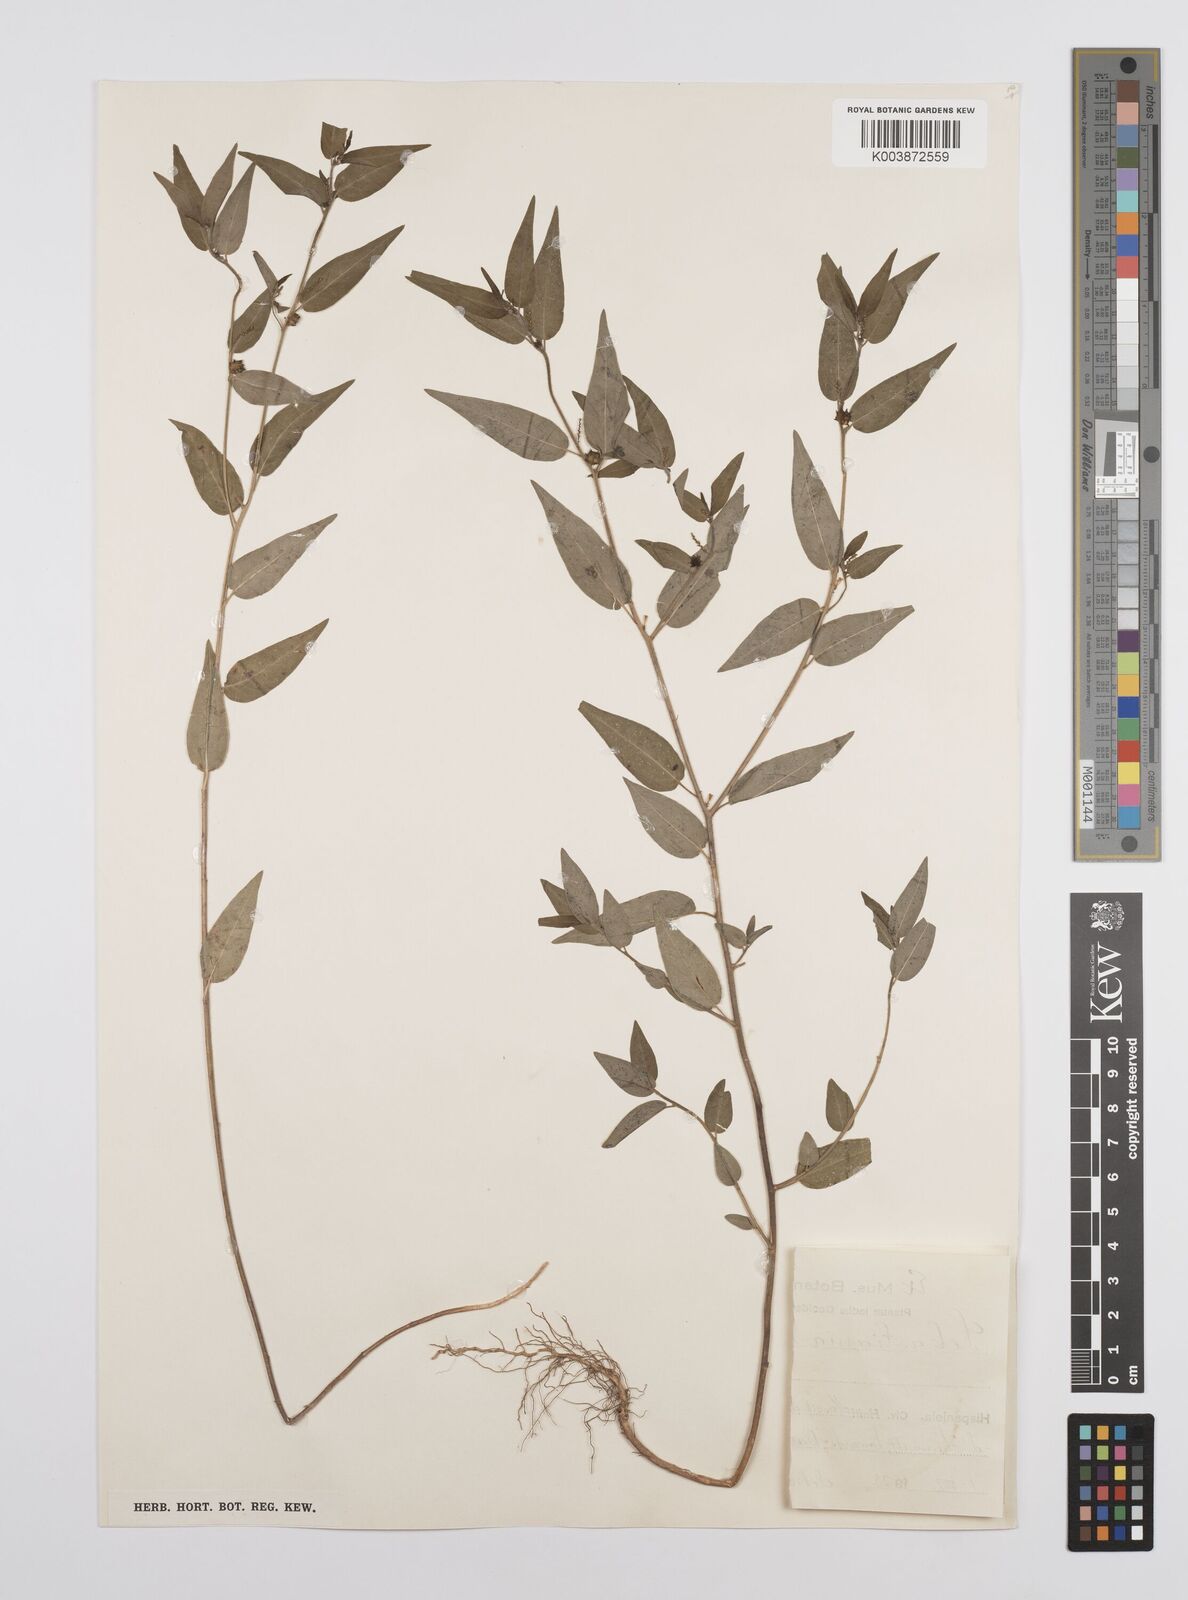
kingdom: Plantae
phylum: Tracheophyta
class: Magnoliopsida
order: Malpighiales
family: Euphorbiaceae
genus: Microstachys
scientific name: Microstachys corniculata
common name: Hato tejas
